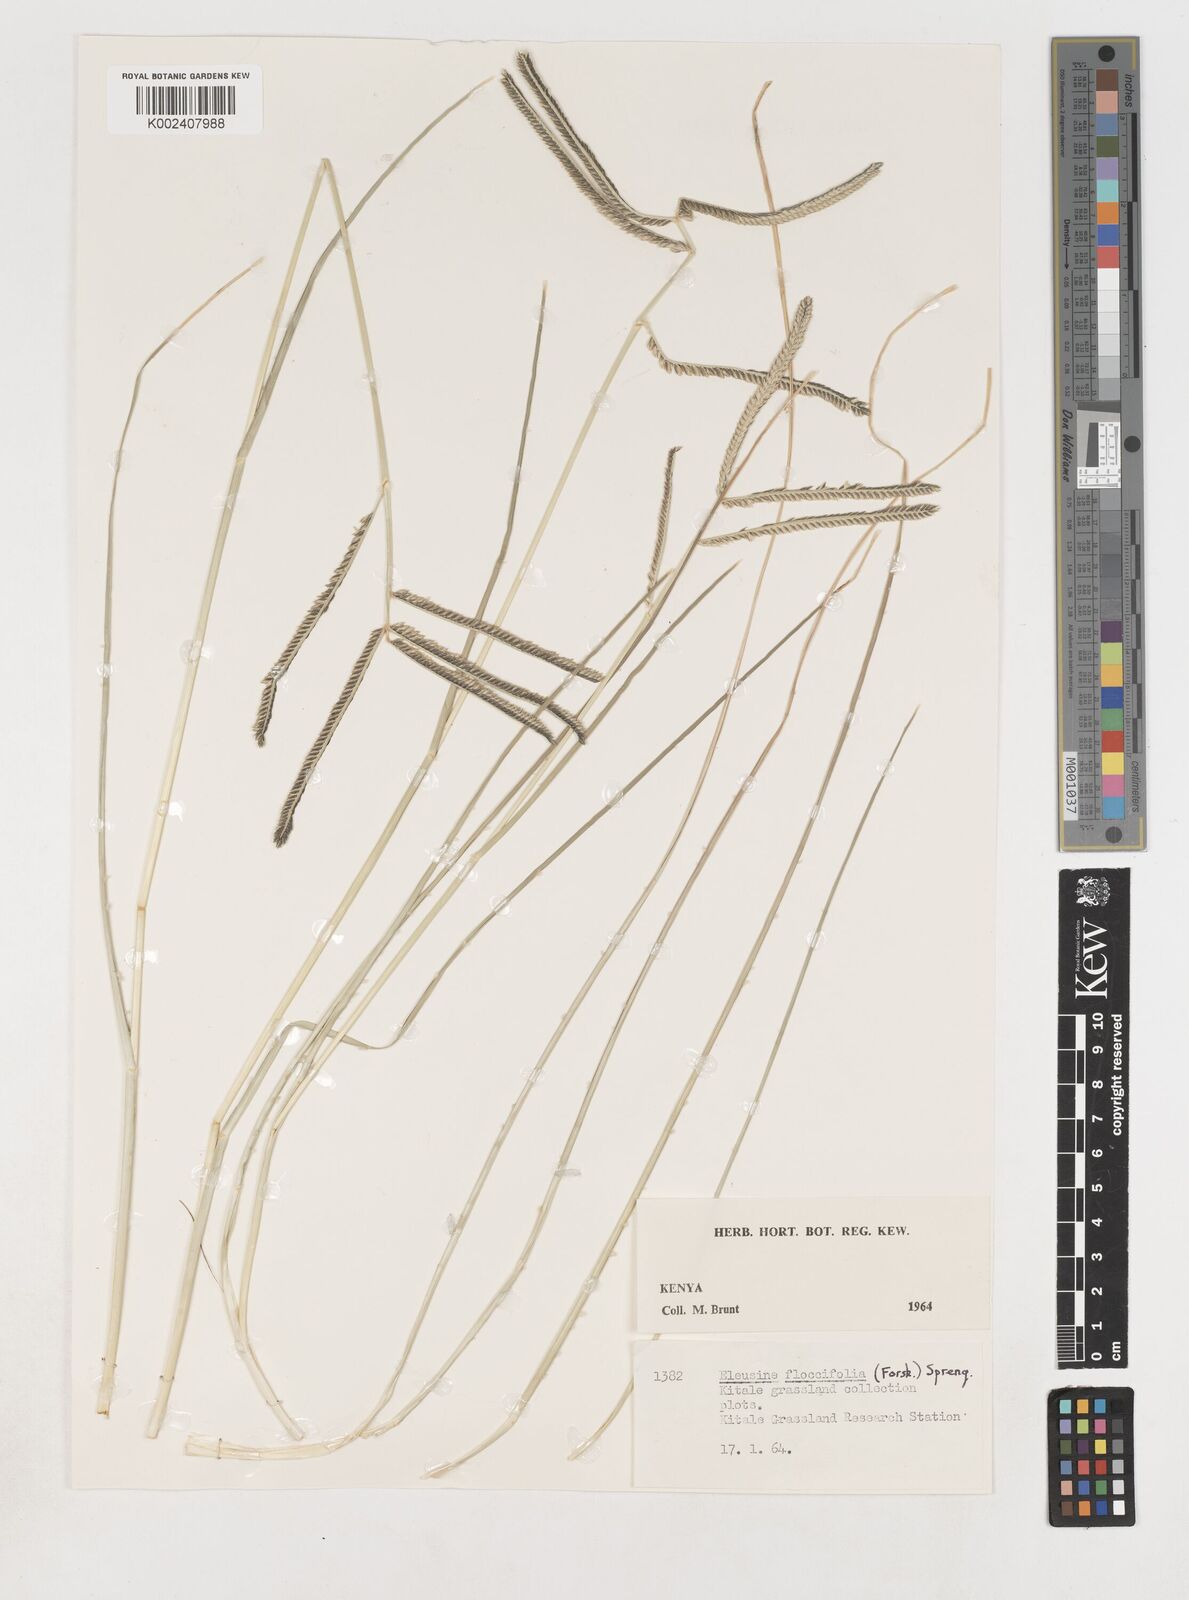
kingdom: Plantae
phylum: Tracheophyta
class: Liliopsida
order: Poales
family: Poaceae
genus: Eleusine
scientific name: Eleusine floccifolia
